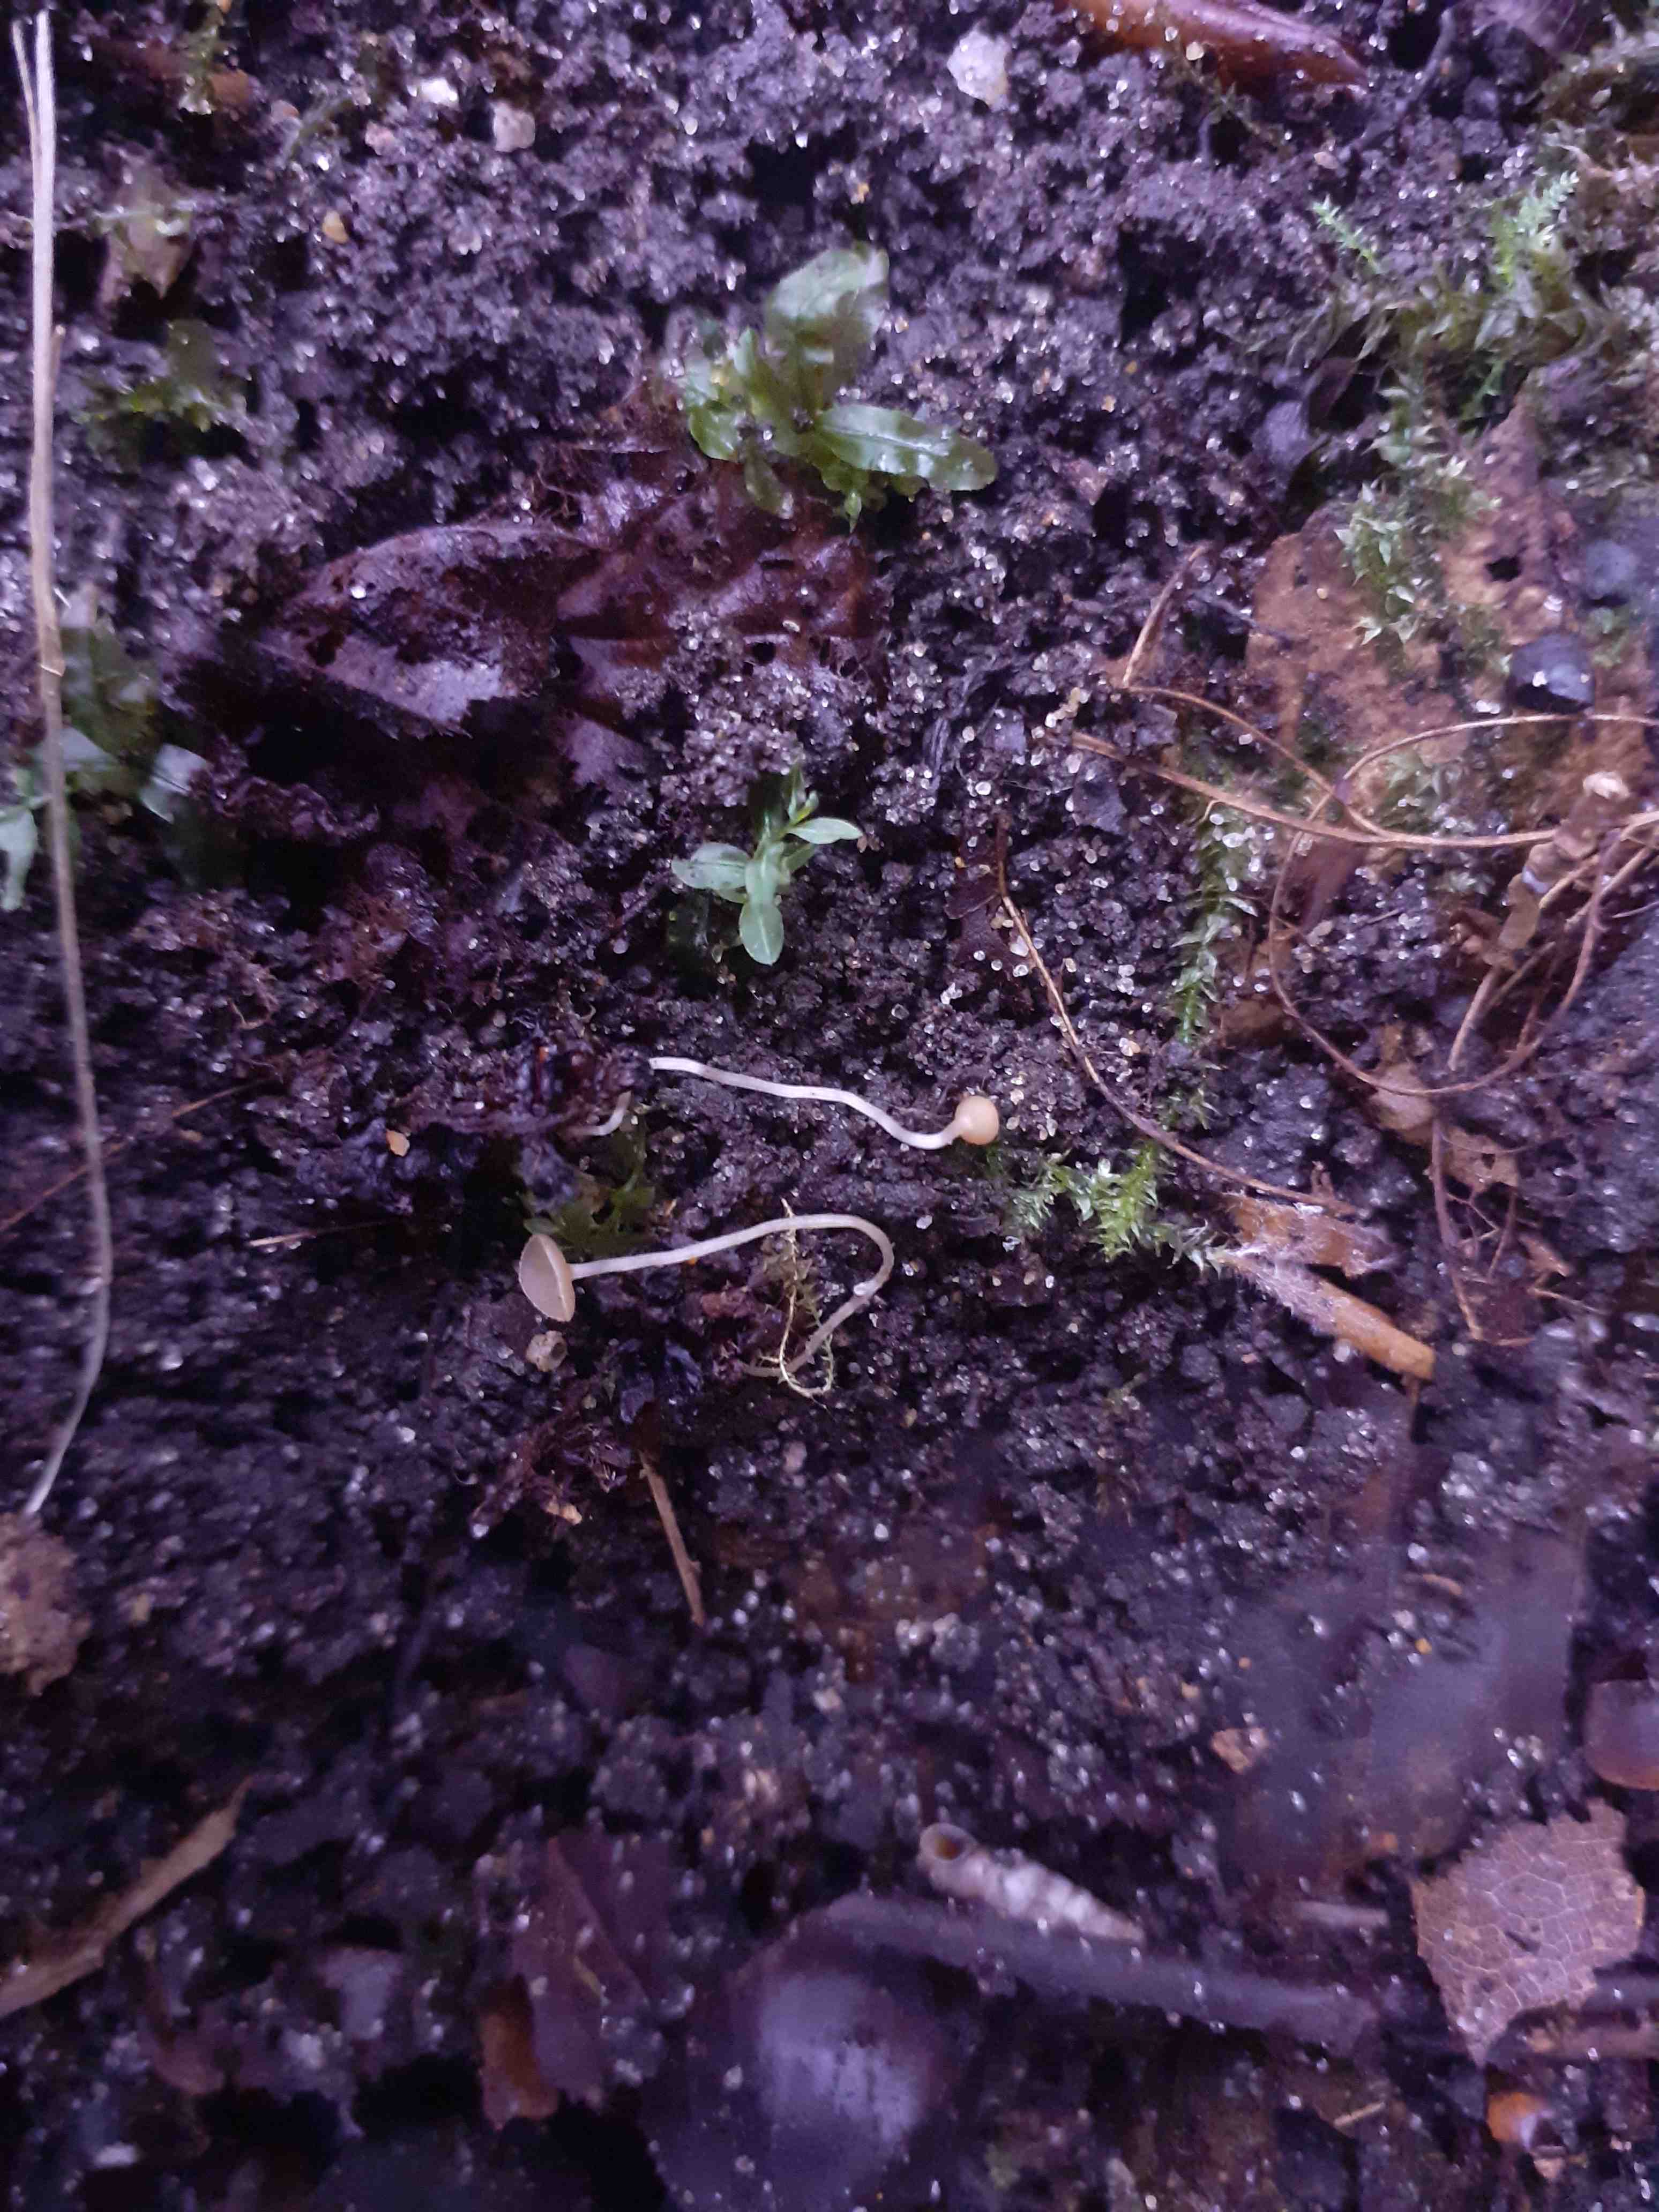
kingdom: Fungi
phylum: Ascomycota
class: Leotiomycetes
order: Helotiales
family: Sclerotiniaceae
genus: Ciboria
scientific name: Ciboria
